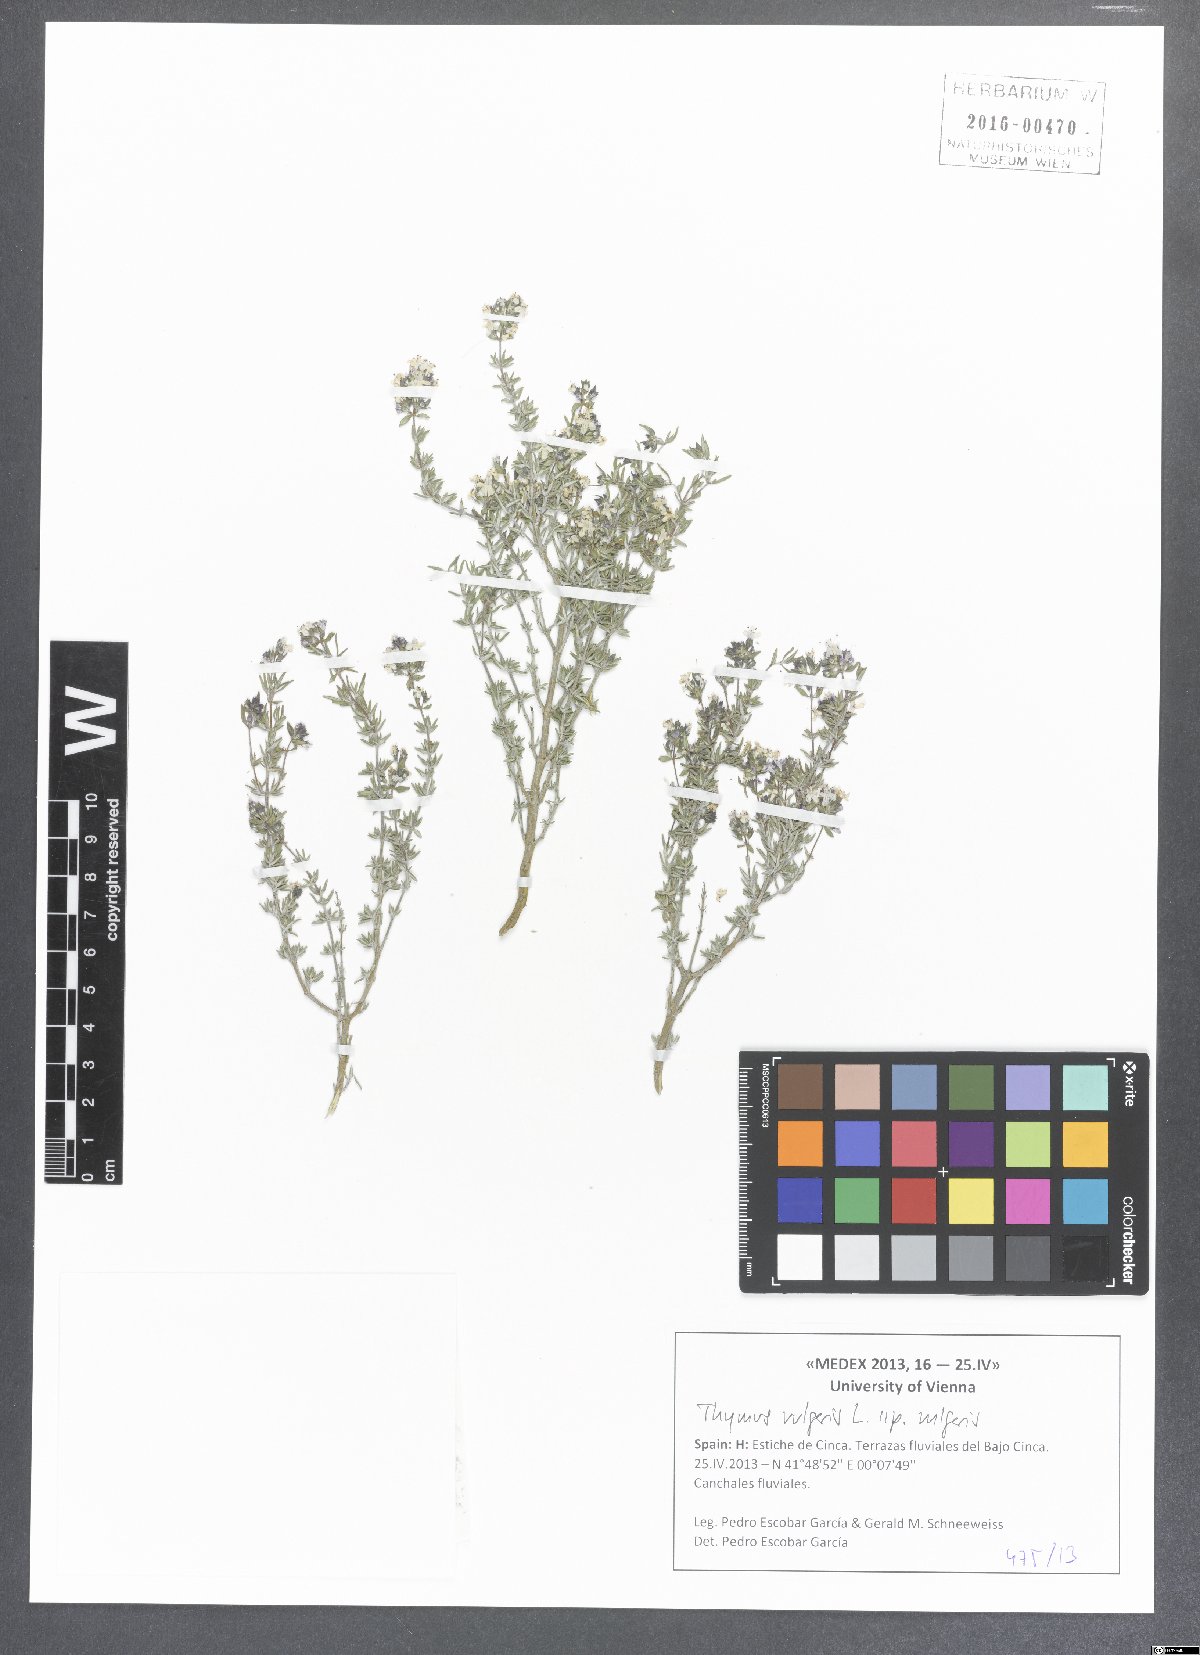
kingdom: Plantae
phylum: Tracheophyta
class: Magnoliopsida
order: Lamiales
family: Lamiaceae
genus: Thymus
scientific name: Thymus vulgaris
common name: Garden thyme
